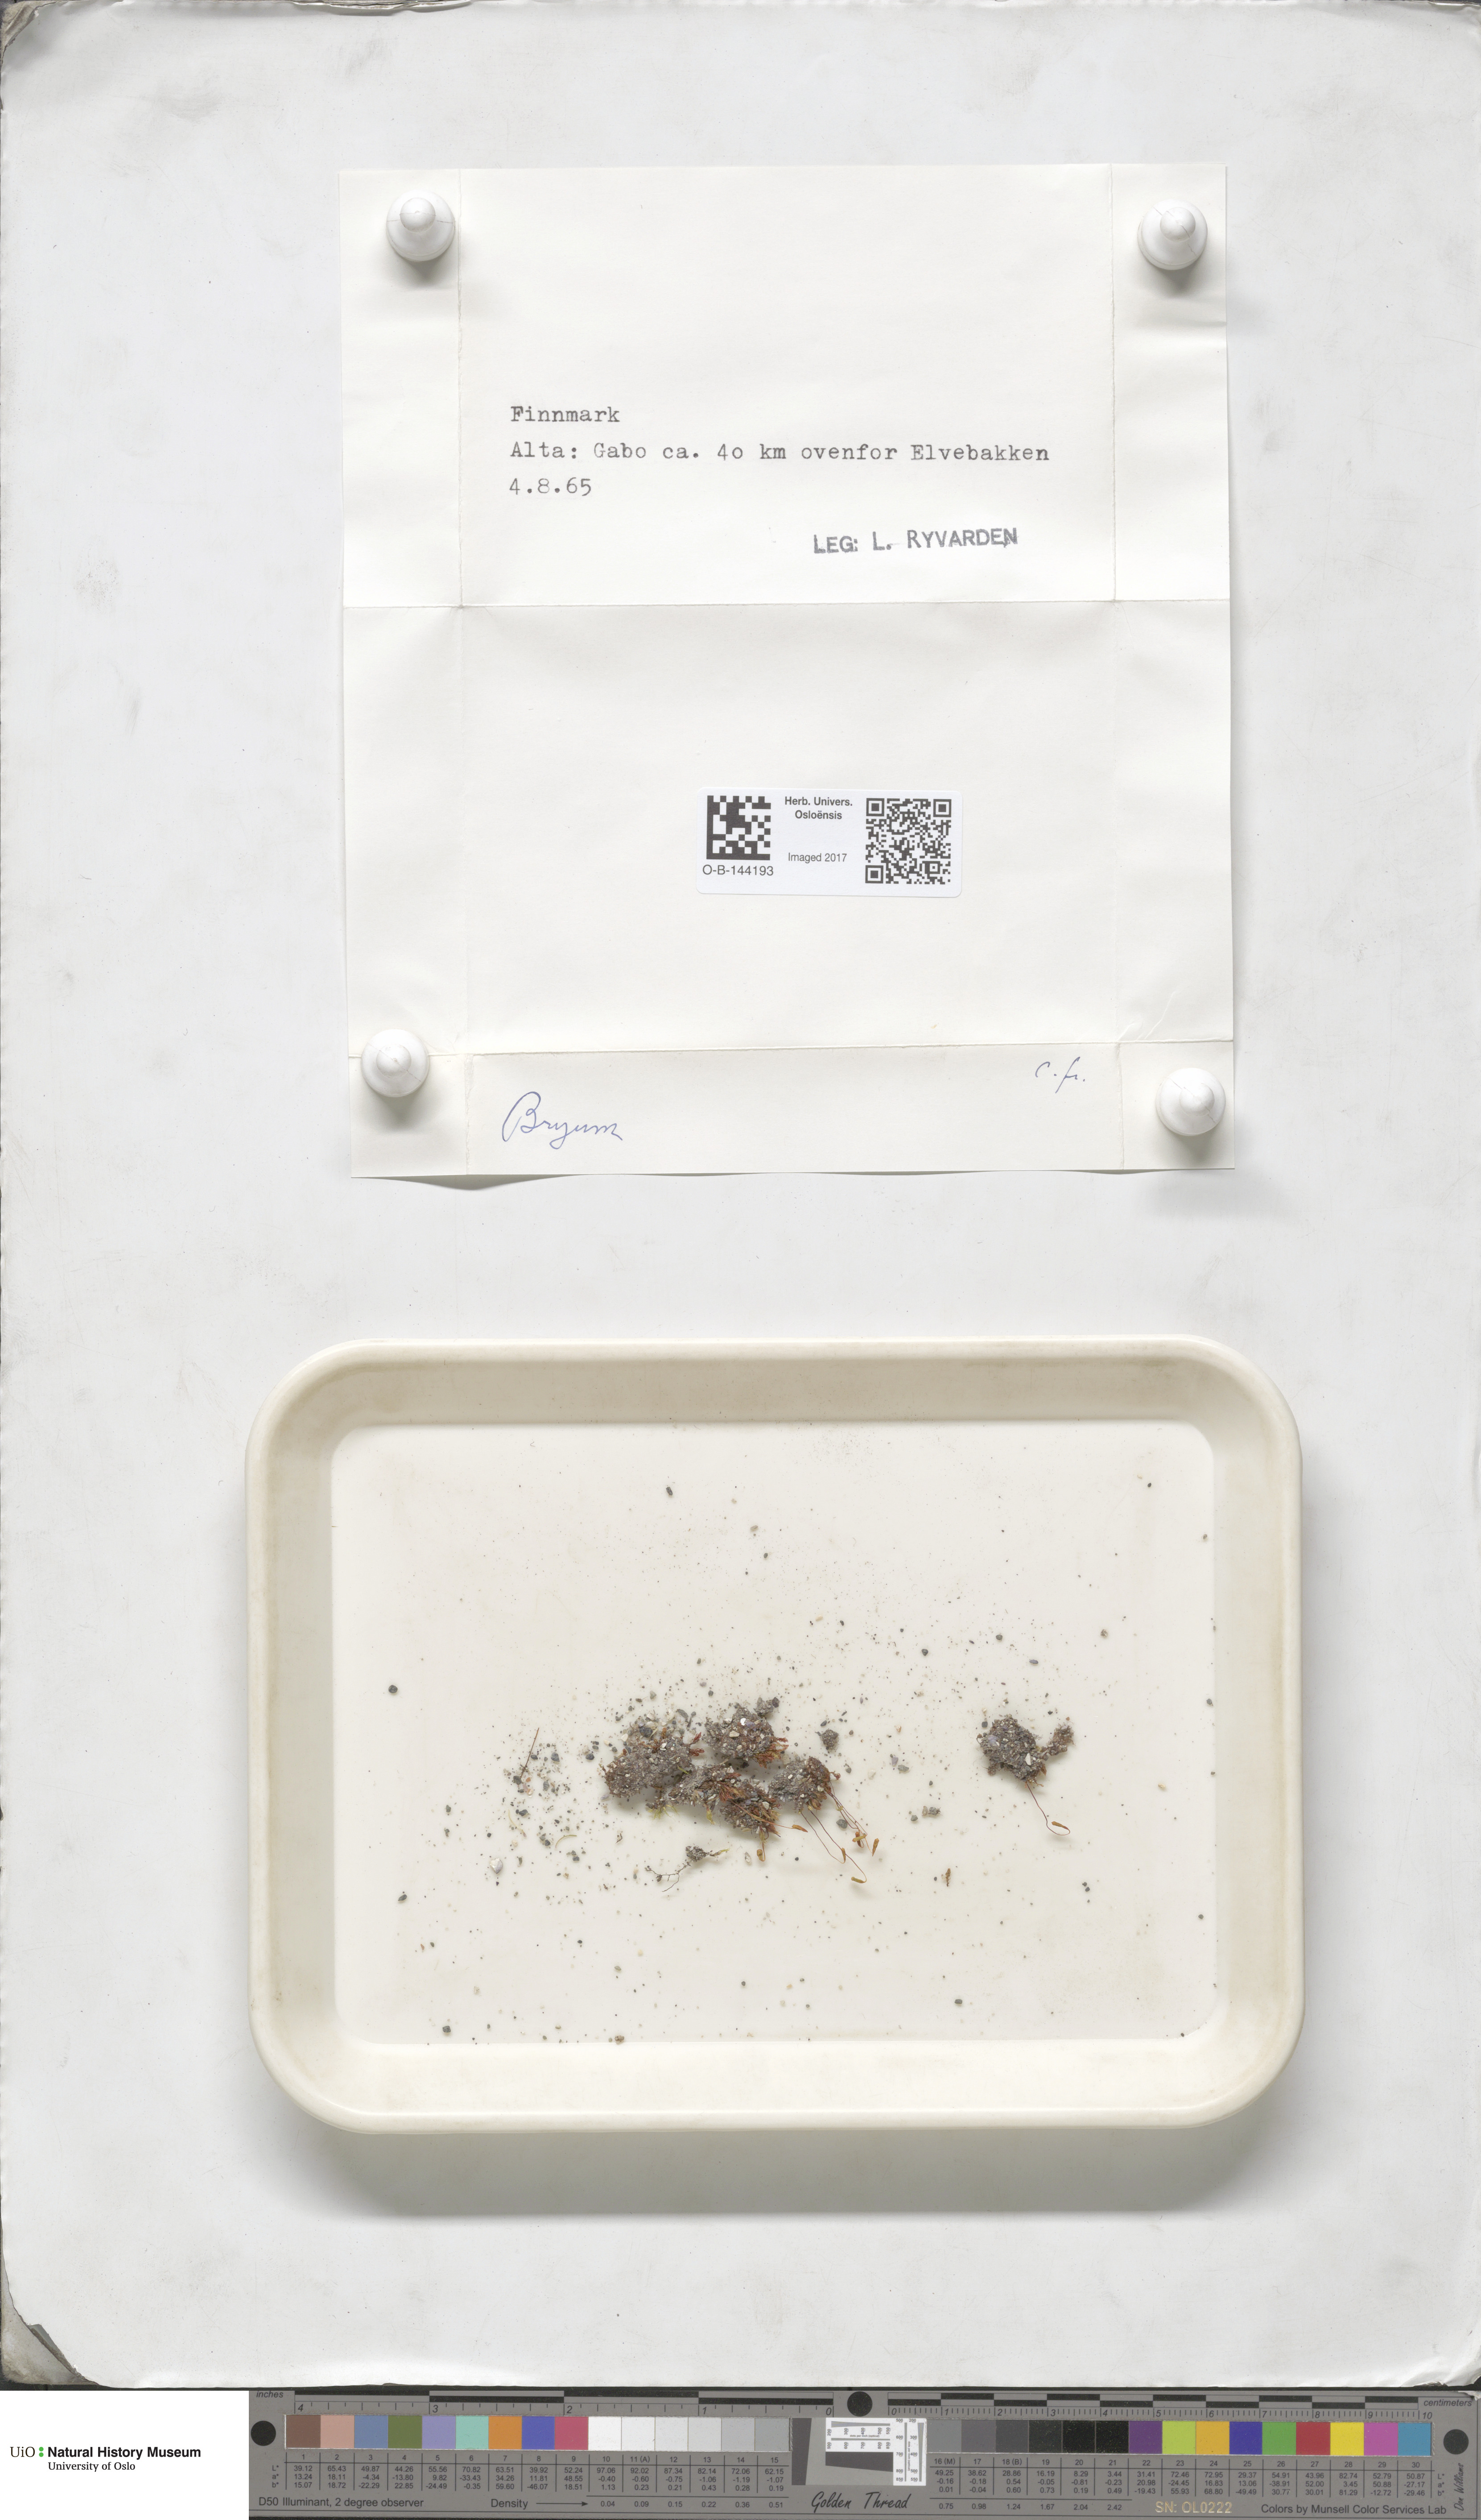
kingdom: Plantae
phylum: Bryophyta
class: Bryopsida
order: Bryales
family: Bryaceae
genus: Bryum
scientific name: Bryum
